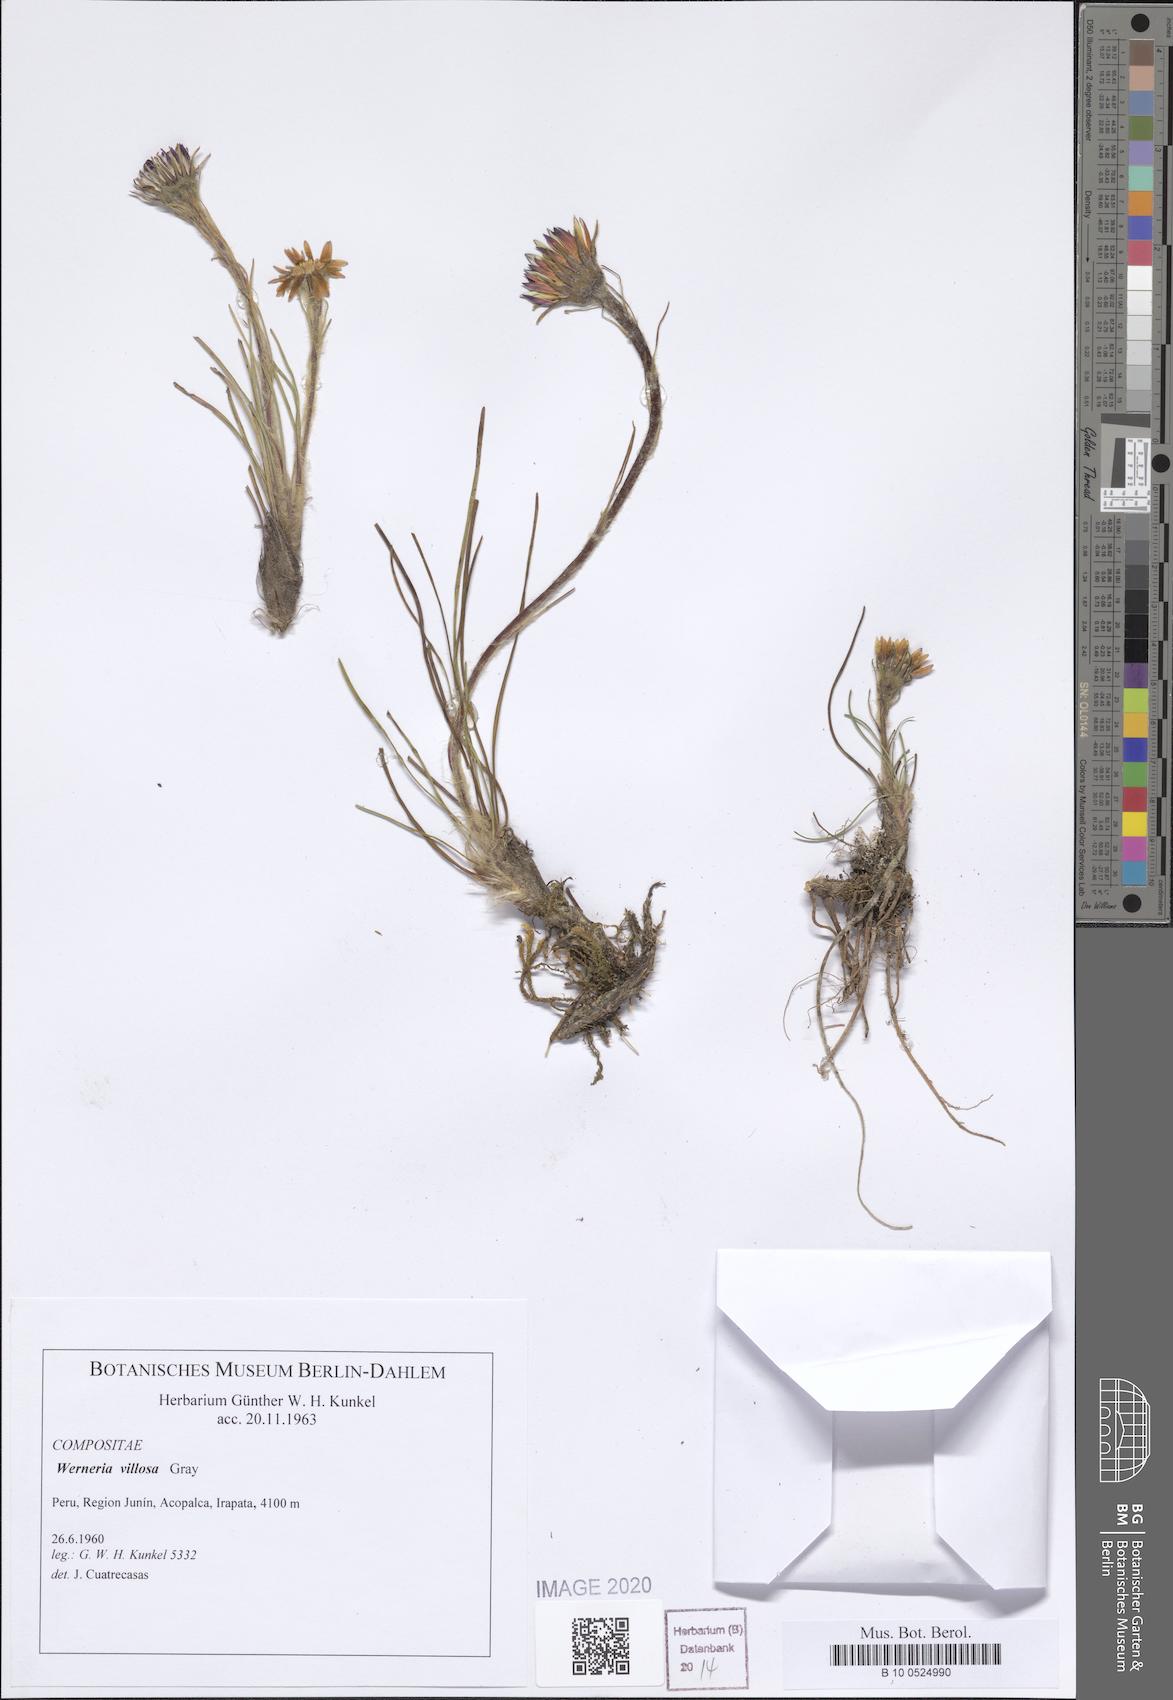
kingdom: Plantae
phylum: Tracheophyta
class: Magnoliopsida
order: Asterales
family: Asteraceae
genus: Rockhausenia
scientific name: Rockhausenia villosa
